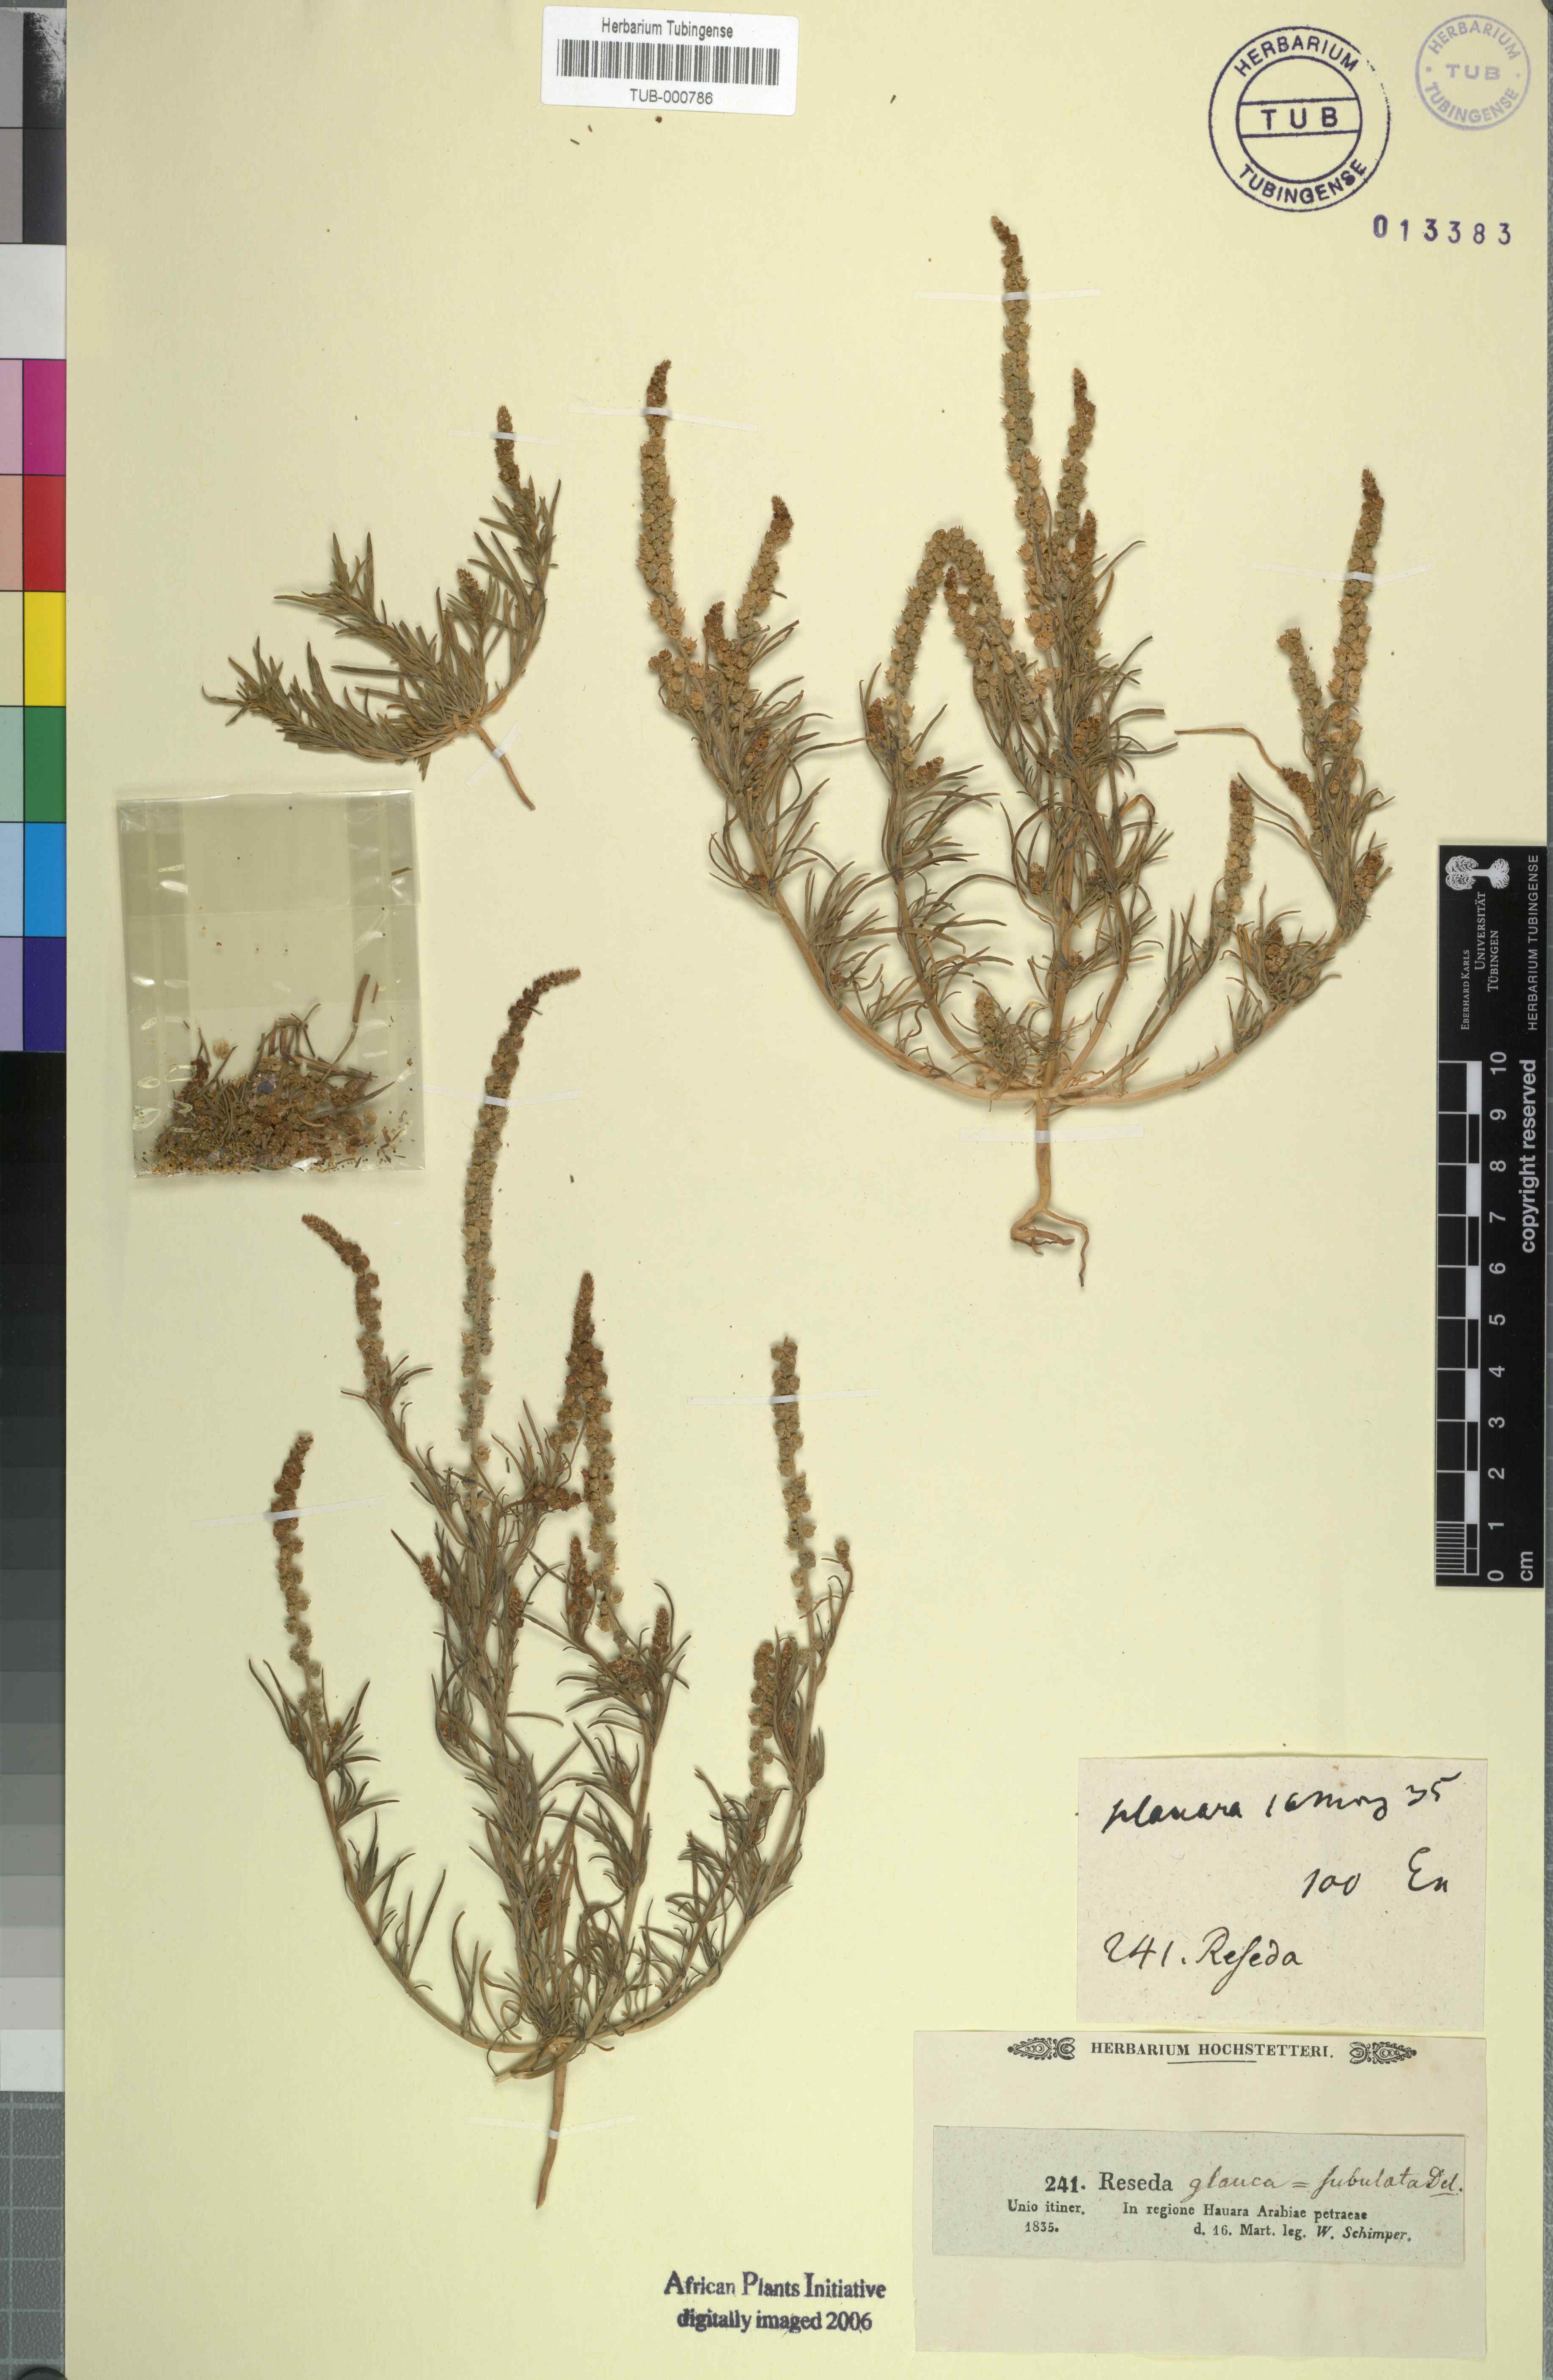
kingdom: Plantae
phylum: Tracheophyta
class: Magnoliopsida
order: Brassicales
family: Resedaceae
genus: Oligomeris
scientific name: Oligomeris linifolia
